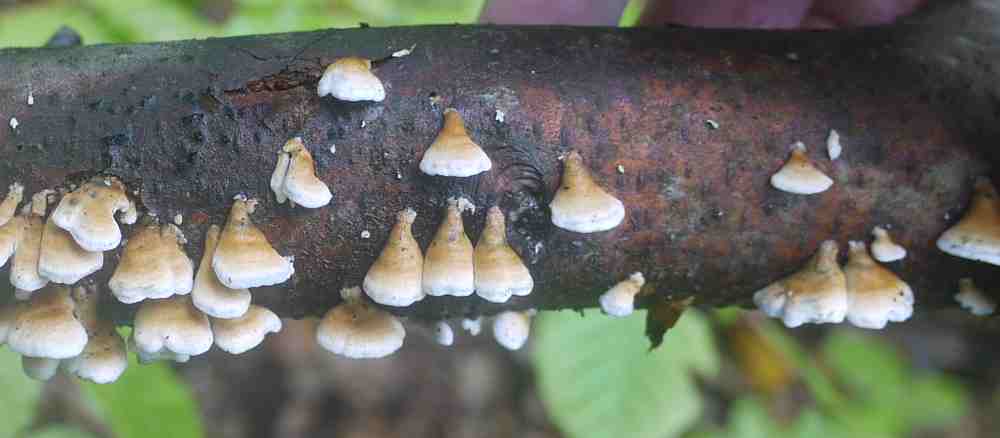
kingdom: Fungi
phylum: Basidiomycota
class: Agaricomycetes
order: Amylocorticiales
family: Amylocorticiaceae
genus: Plicaturopsis
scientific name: Plicaturopsis crispa
